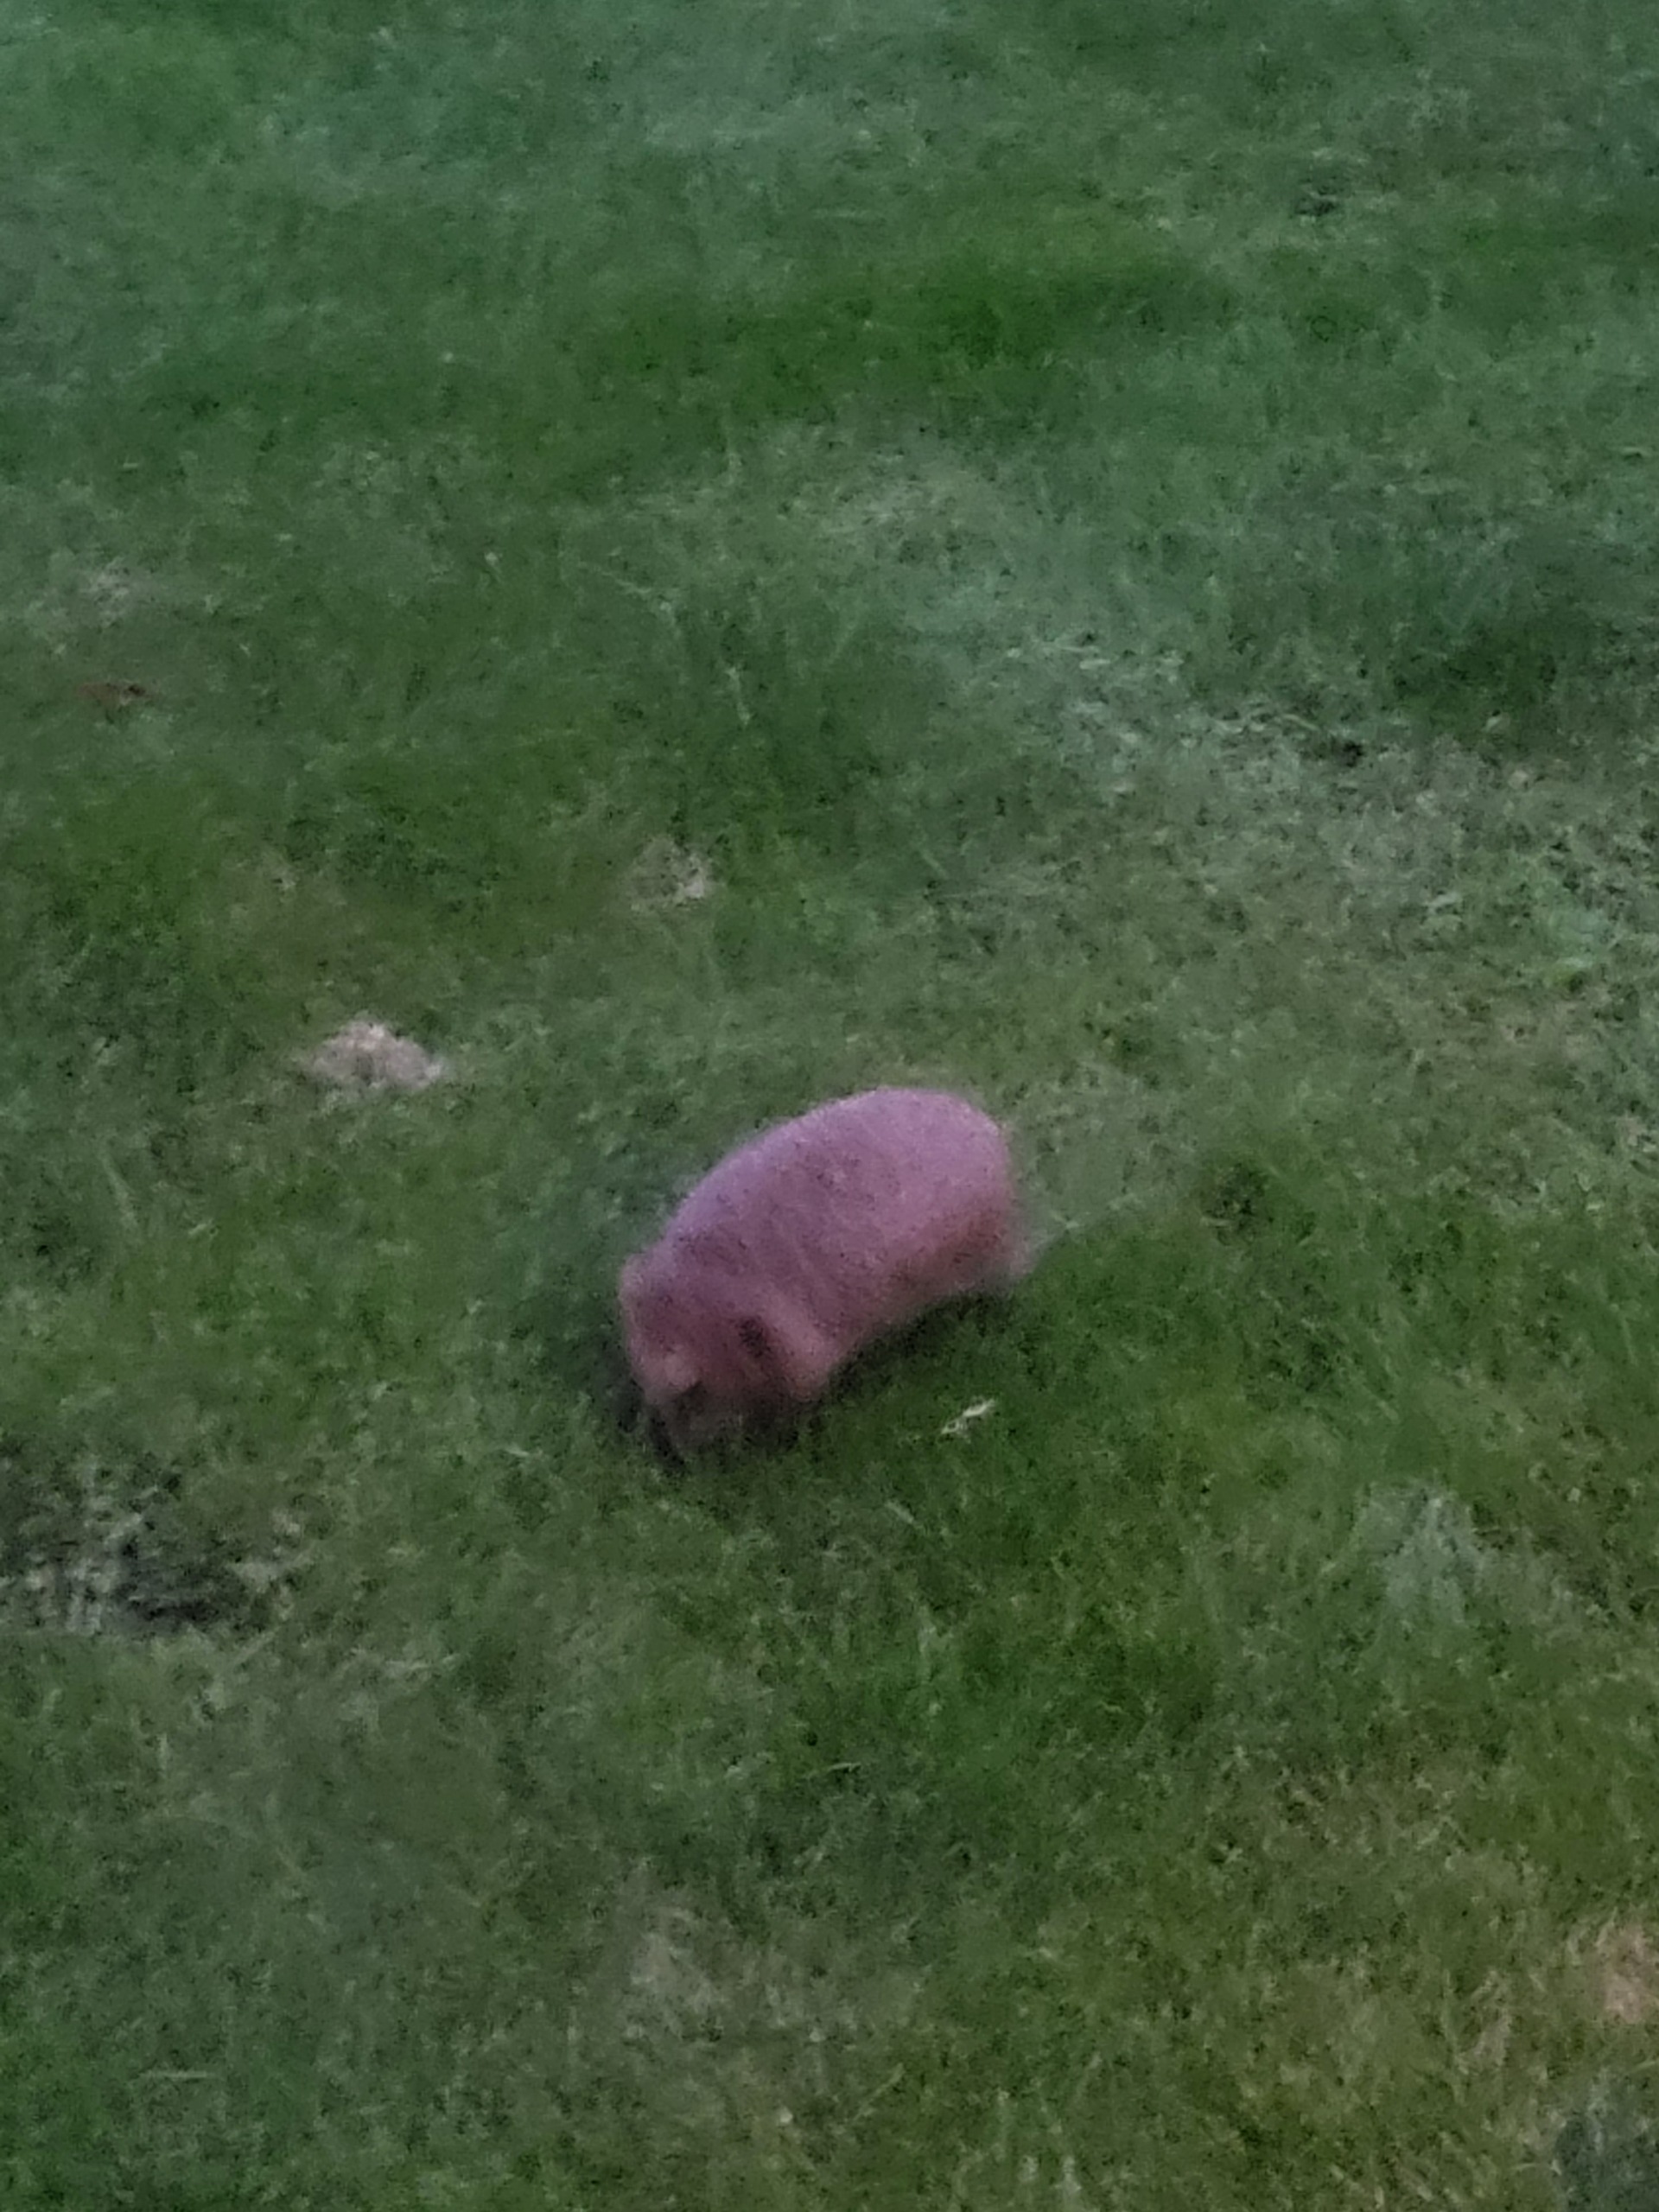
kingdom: Animalia
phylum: Chordata
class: Mammalia
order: Erinaceomorpha
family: Erinaceidae
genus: Erinaceus
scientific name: Erinaceus europaeus
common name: Pindsvin
